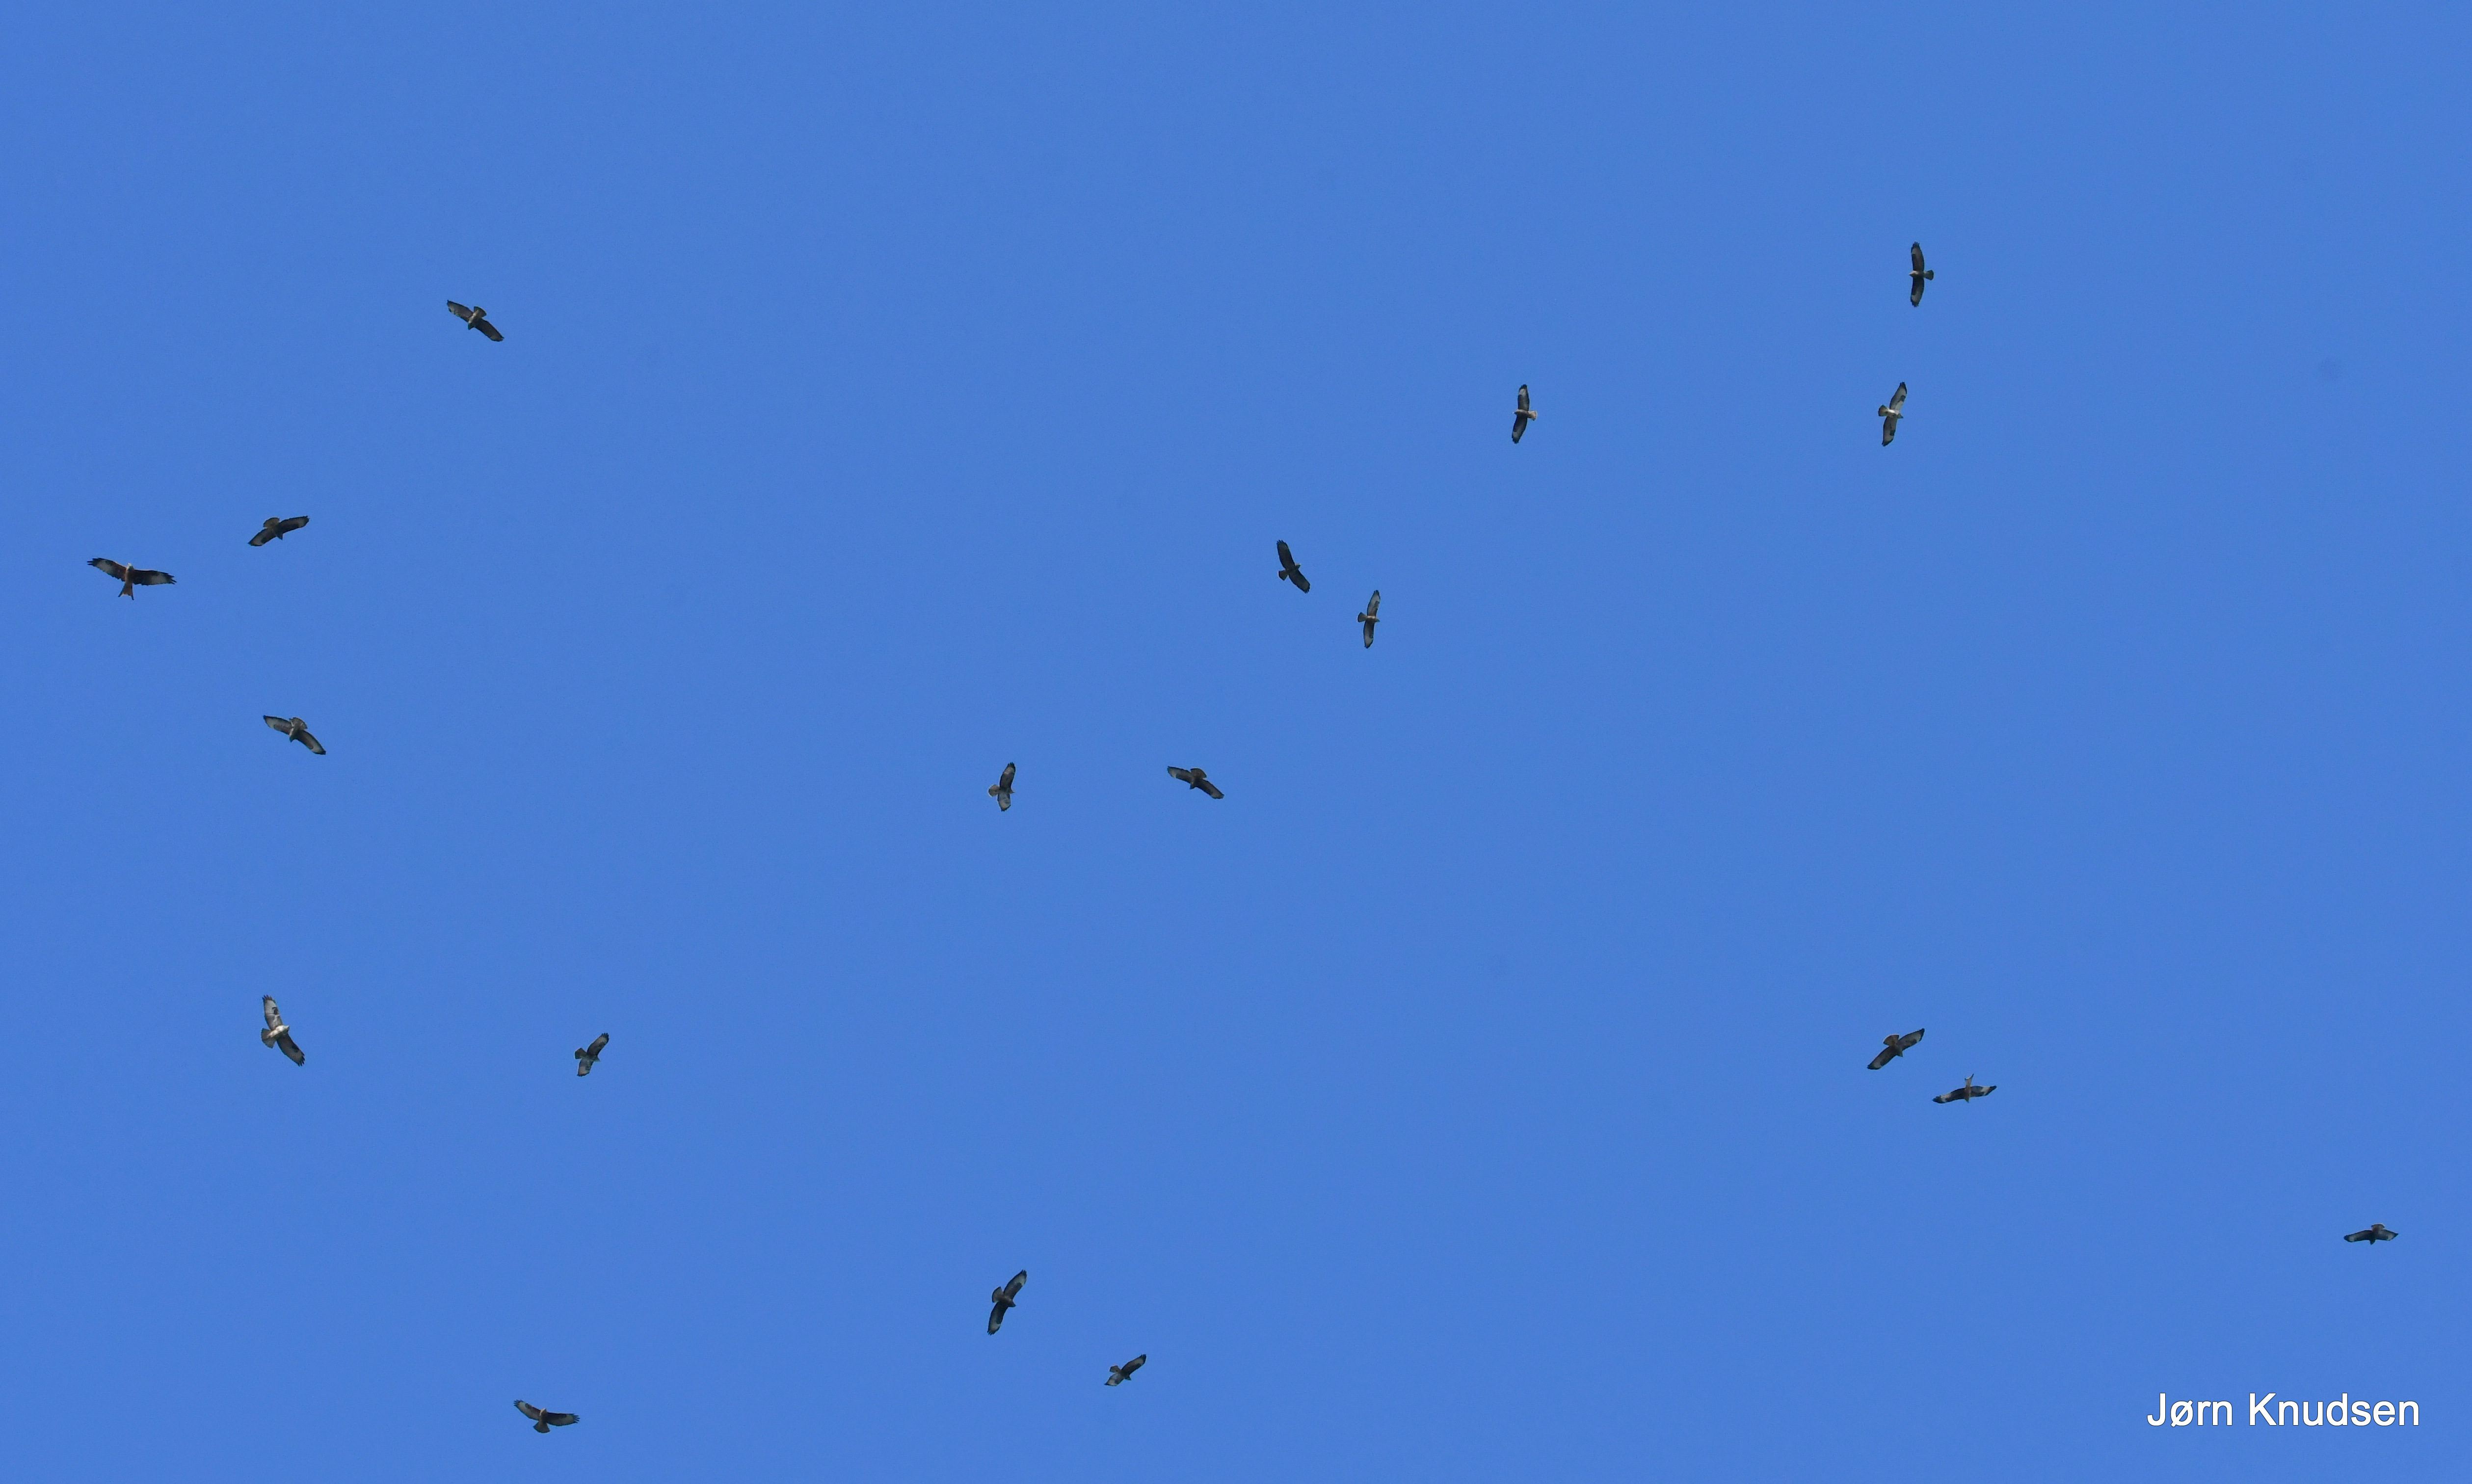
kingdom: Animalia
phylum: Chordata
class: Aves
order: Accipitriformes
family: Accipitridae
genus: Buteo
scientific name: Buteo buteo
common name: Musvåge
